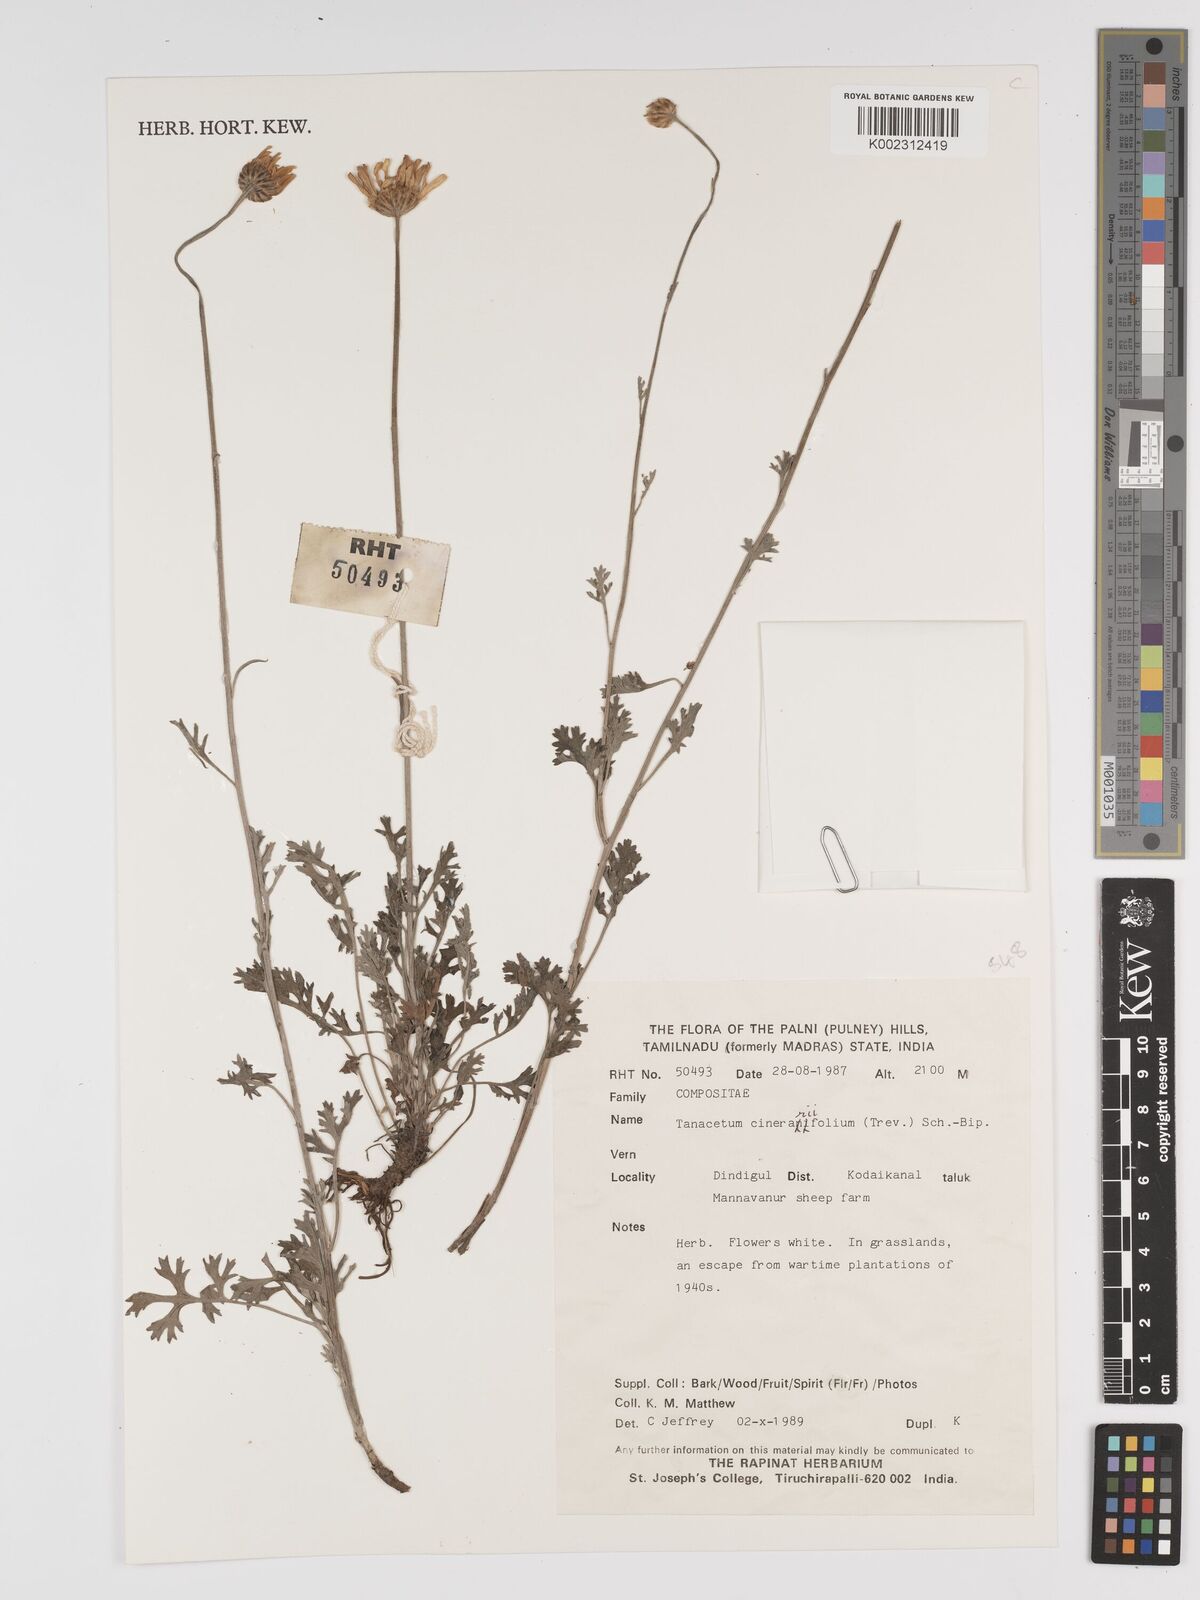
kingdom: Plantae
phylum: Tracheophyta
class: Magnoliopsida
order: Asterales
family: Asteraceae
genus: Tanacetum
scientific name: Tanacetum cinerariifolium
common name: Dalmatian pyrethrum
